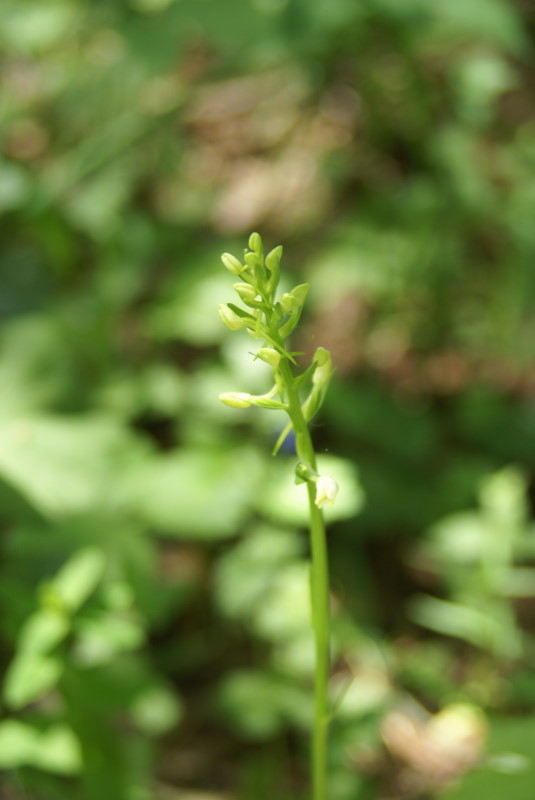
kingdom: Plantae
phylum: Tracheophyta
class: Liliopsida
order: Asparagales
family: Orchidaceae
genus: Platanthera
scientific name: Platanthera bifolia
